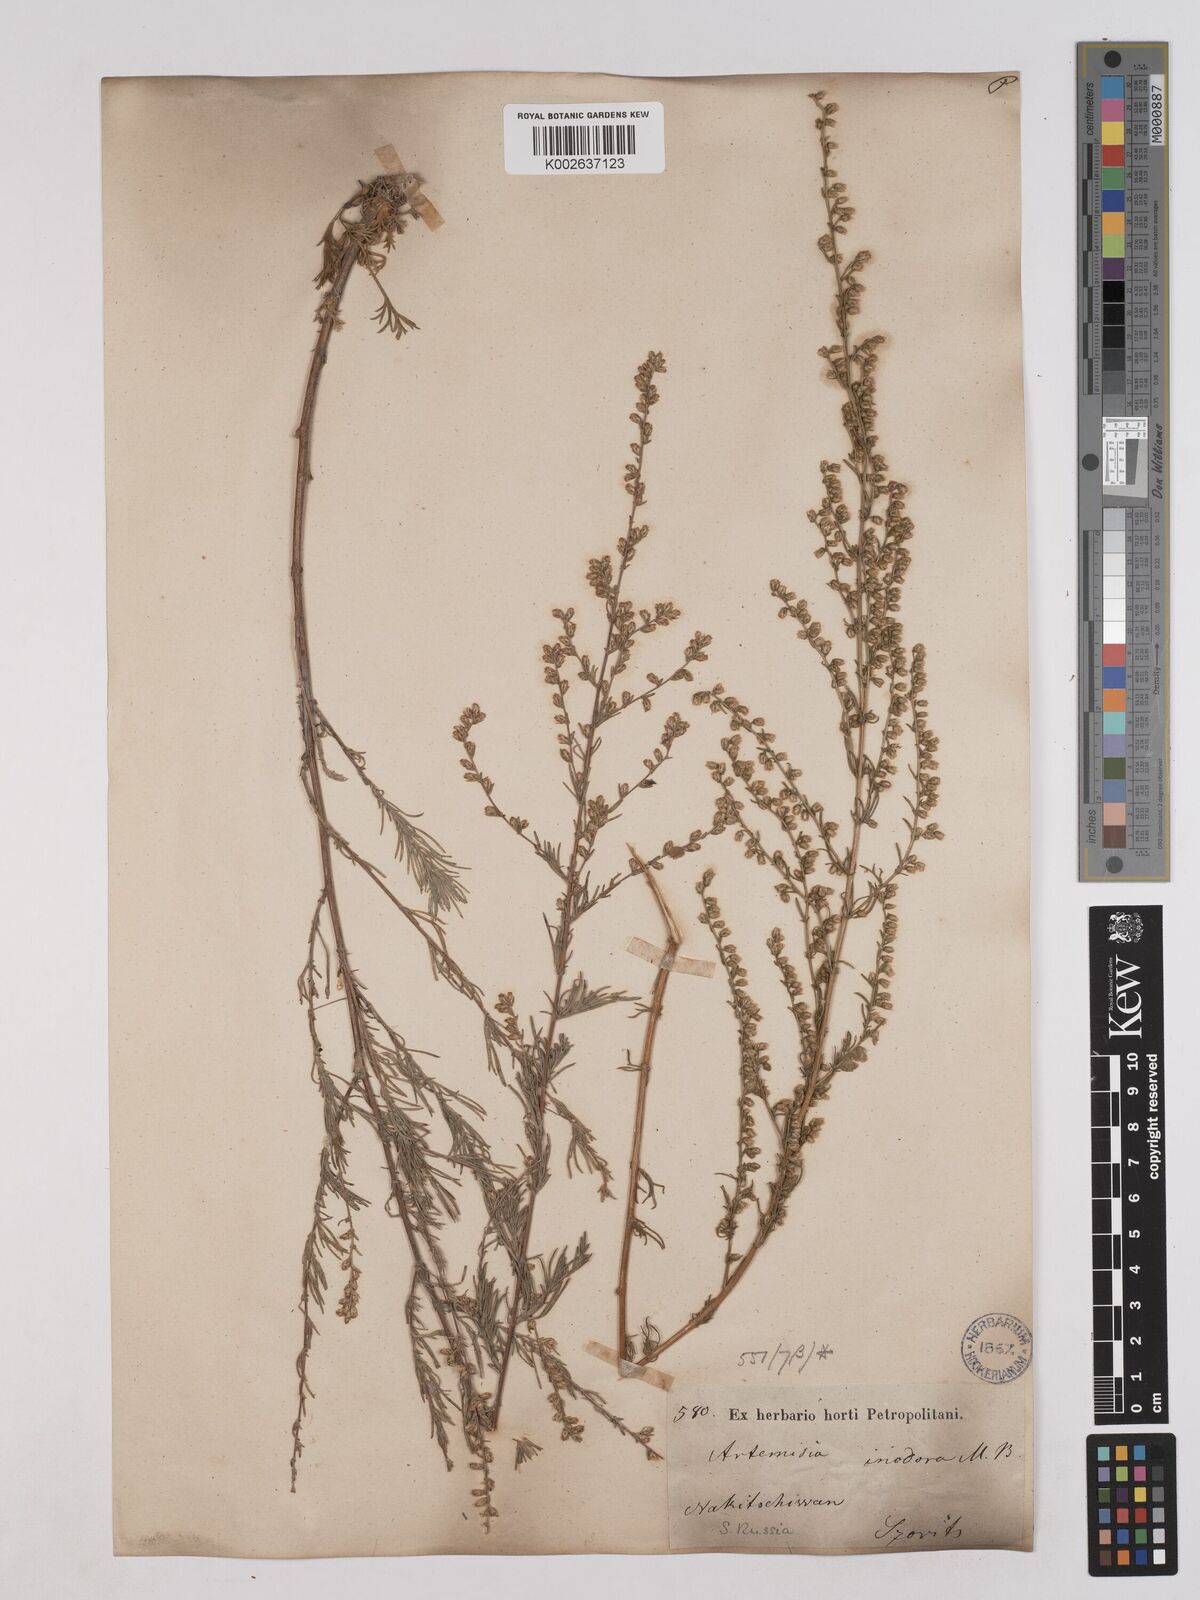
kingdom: Plantae
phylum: Tracheophyta
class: Magnoliopsida
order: Asterales
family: Asteraceae
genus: Artemisia
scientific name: Artemisia campestris
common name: Field wormwood
